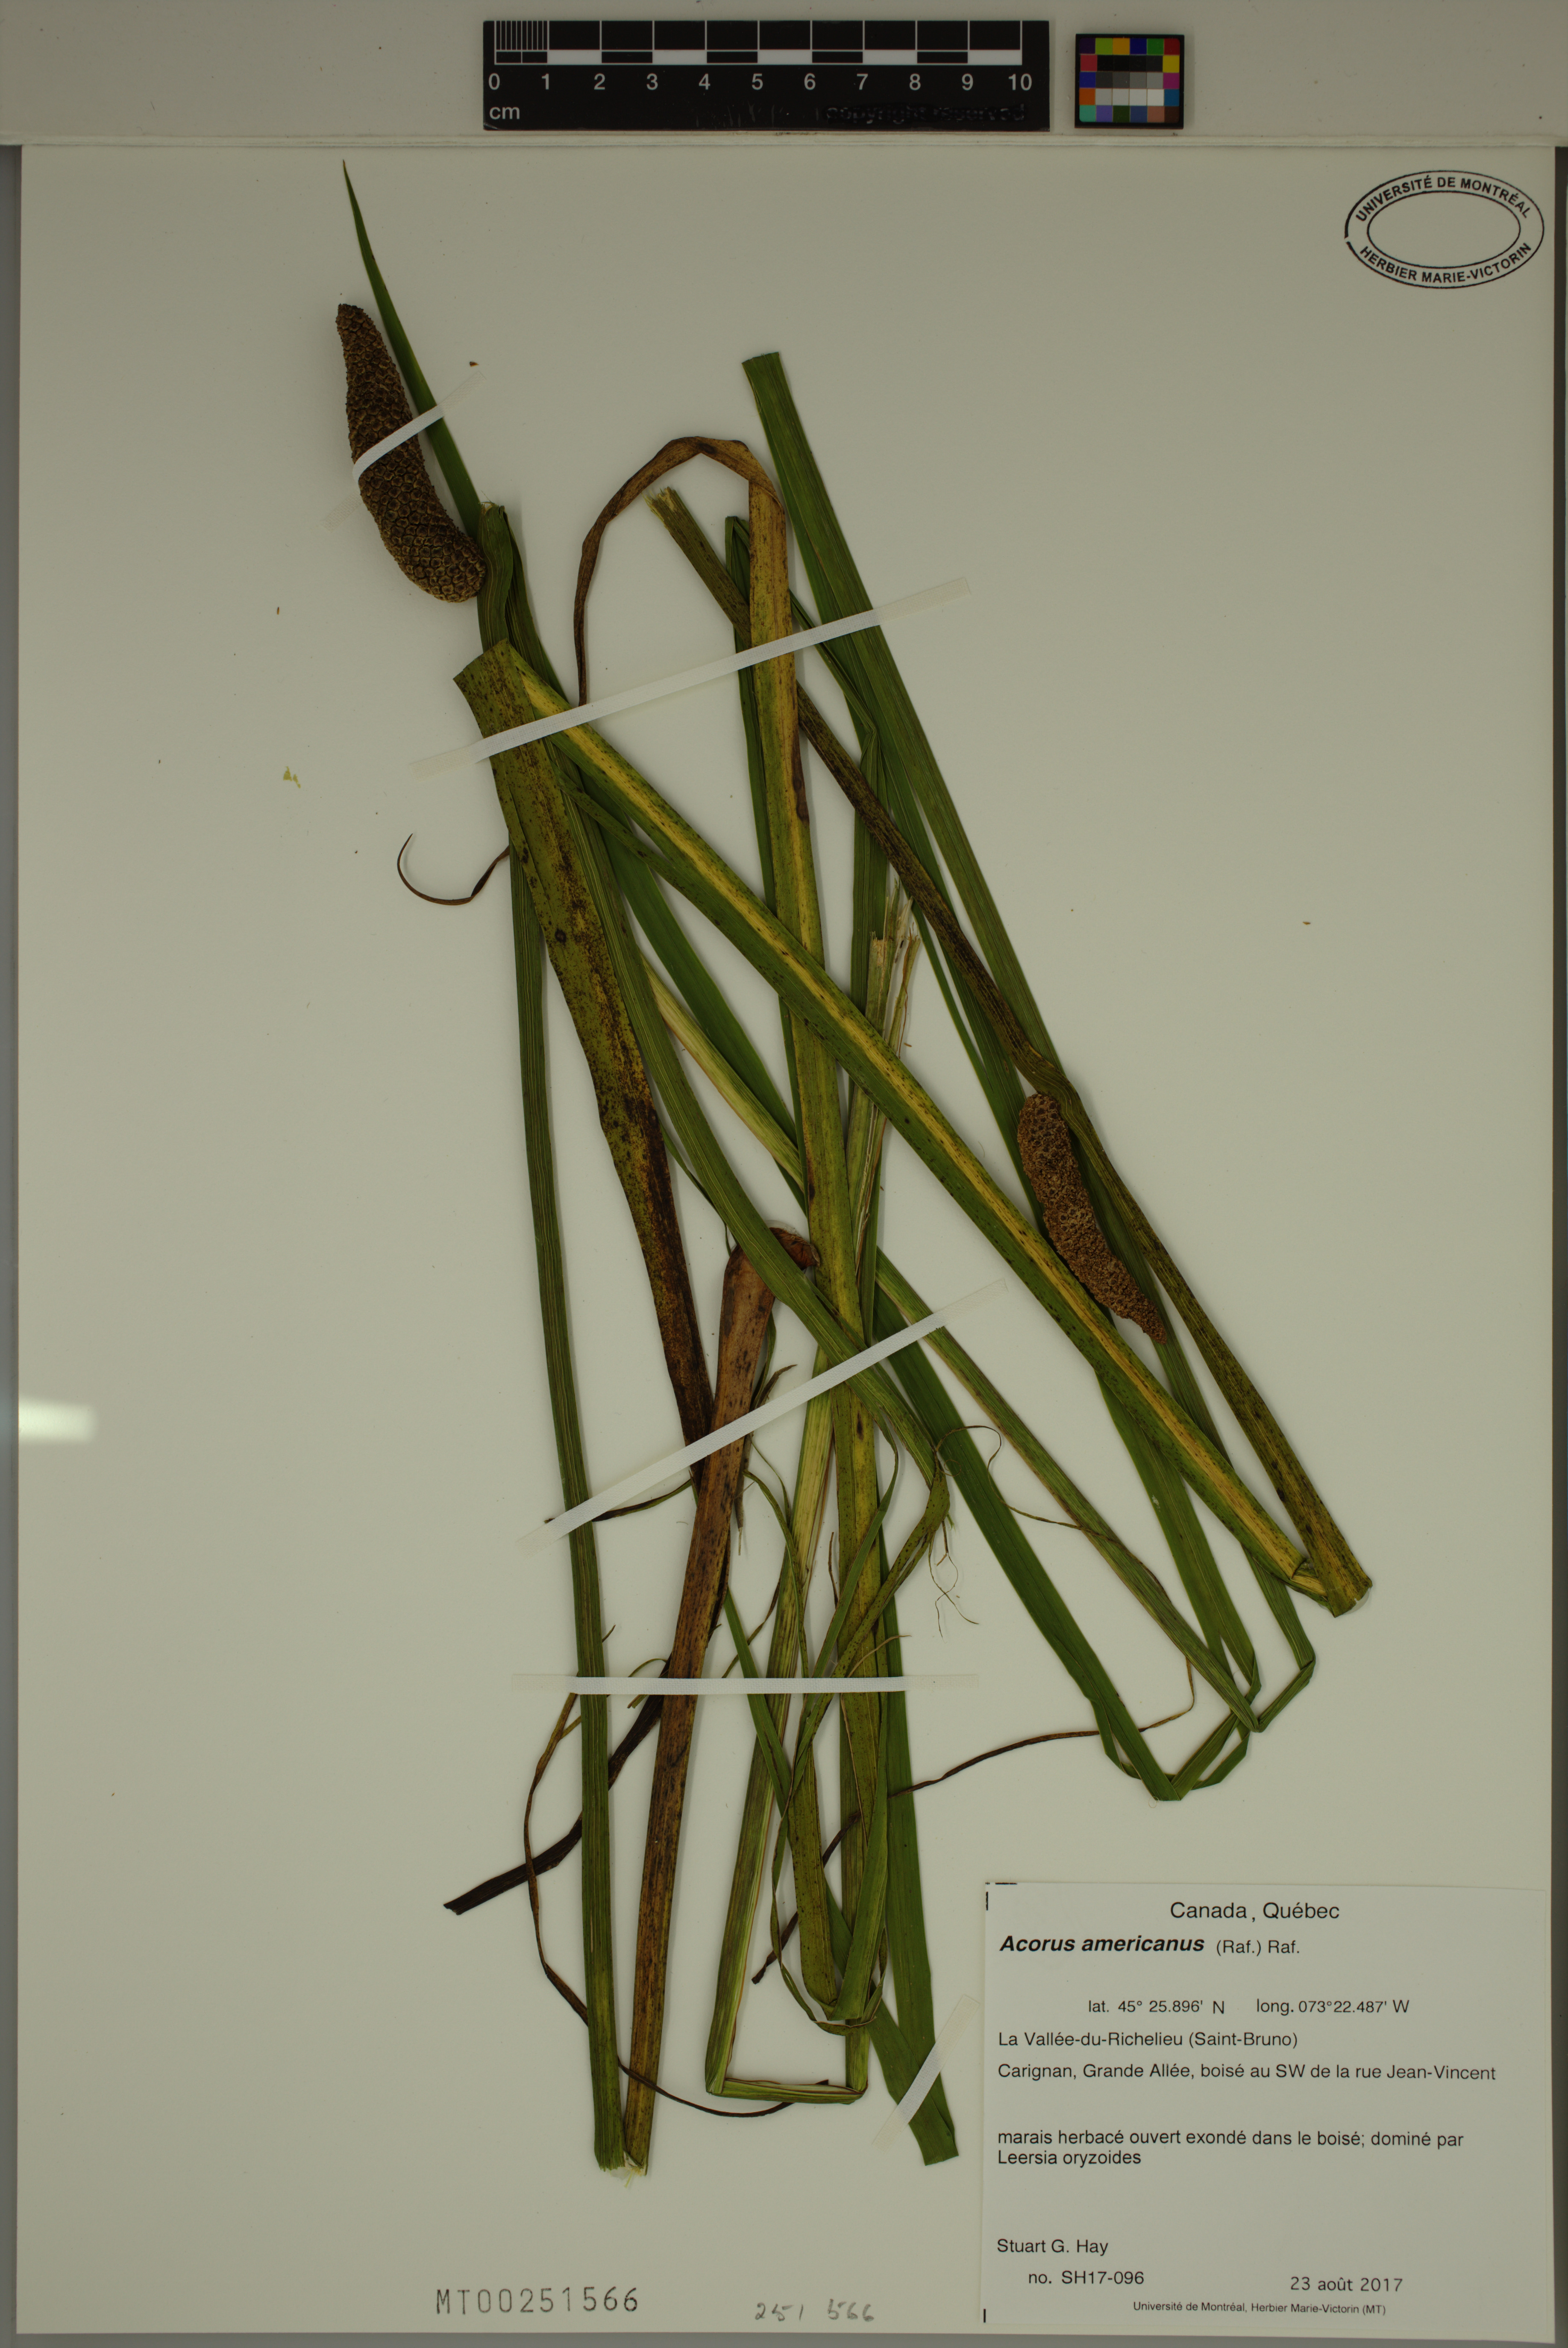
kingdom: Plantae
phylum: Tracheophyta
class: Liliopsida
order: Acorales
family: Acoraceae
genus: Acorus
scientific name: Acorus calamus
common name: Sweet-flag
